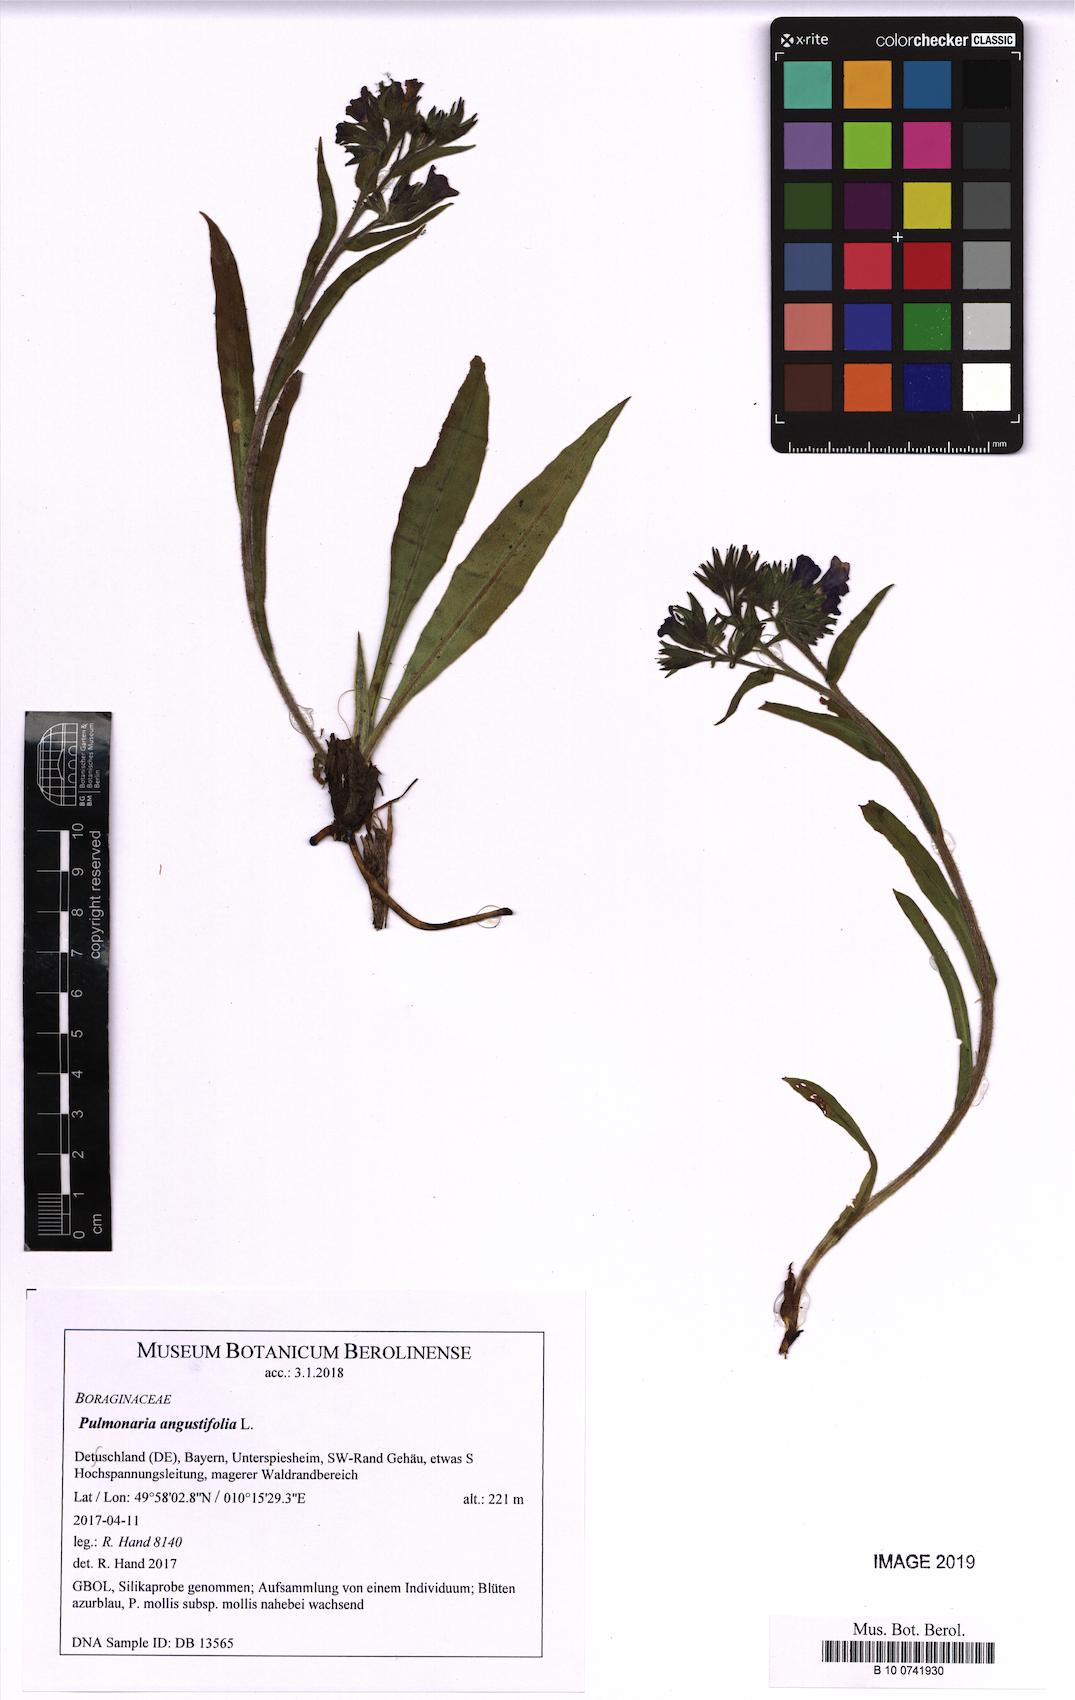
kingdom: Plantae
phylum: Tracheophyta
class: Magnoliopsida
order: Boraginales
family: Boraginaceae
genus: Pulmonaria
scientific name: Pulmonaria angustifolia
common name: Blue cowslip
